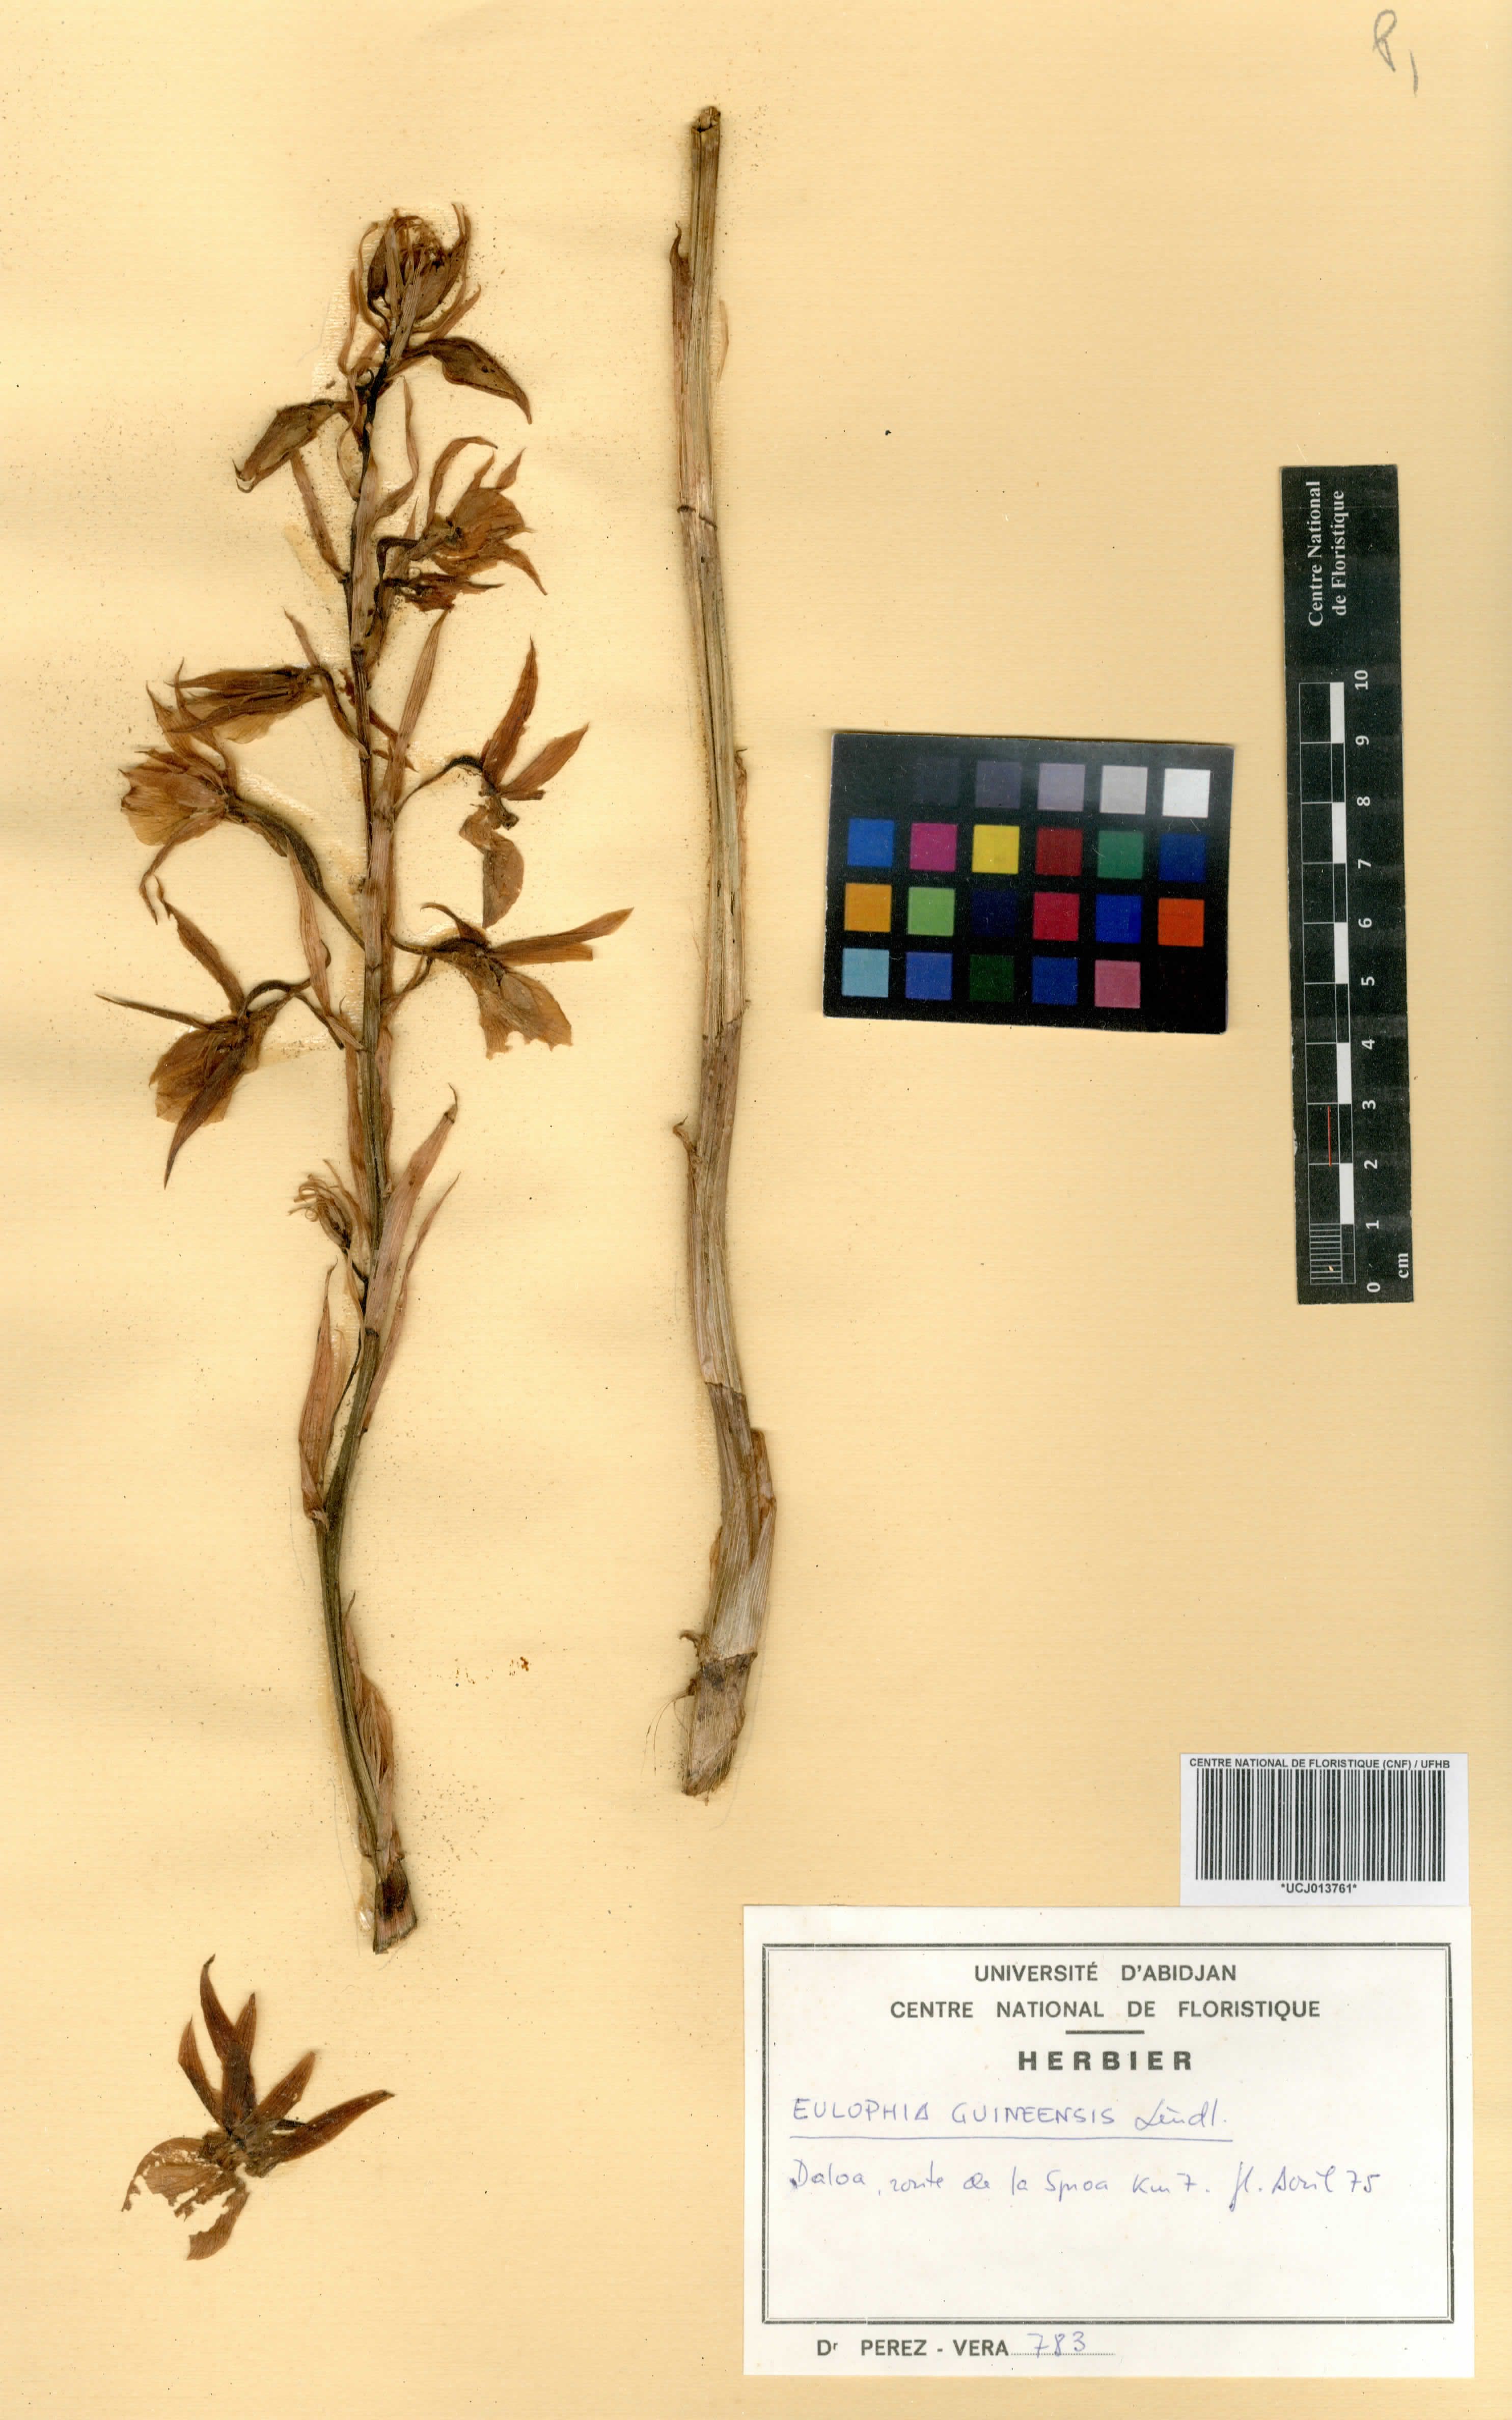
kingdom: Plantae
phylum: Tracheophyta
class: Liliopsida
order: Asparagales
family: Orchidaceae
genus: Eulophia
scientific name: Eulophia guineensis
